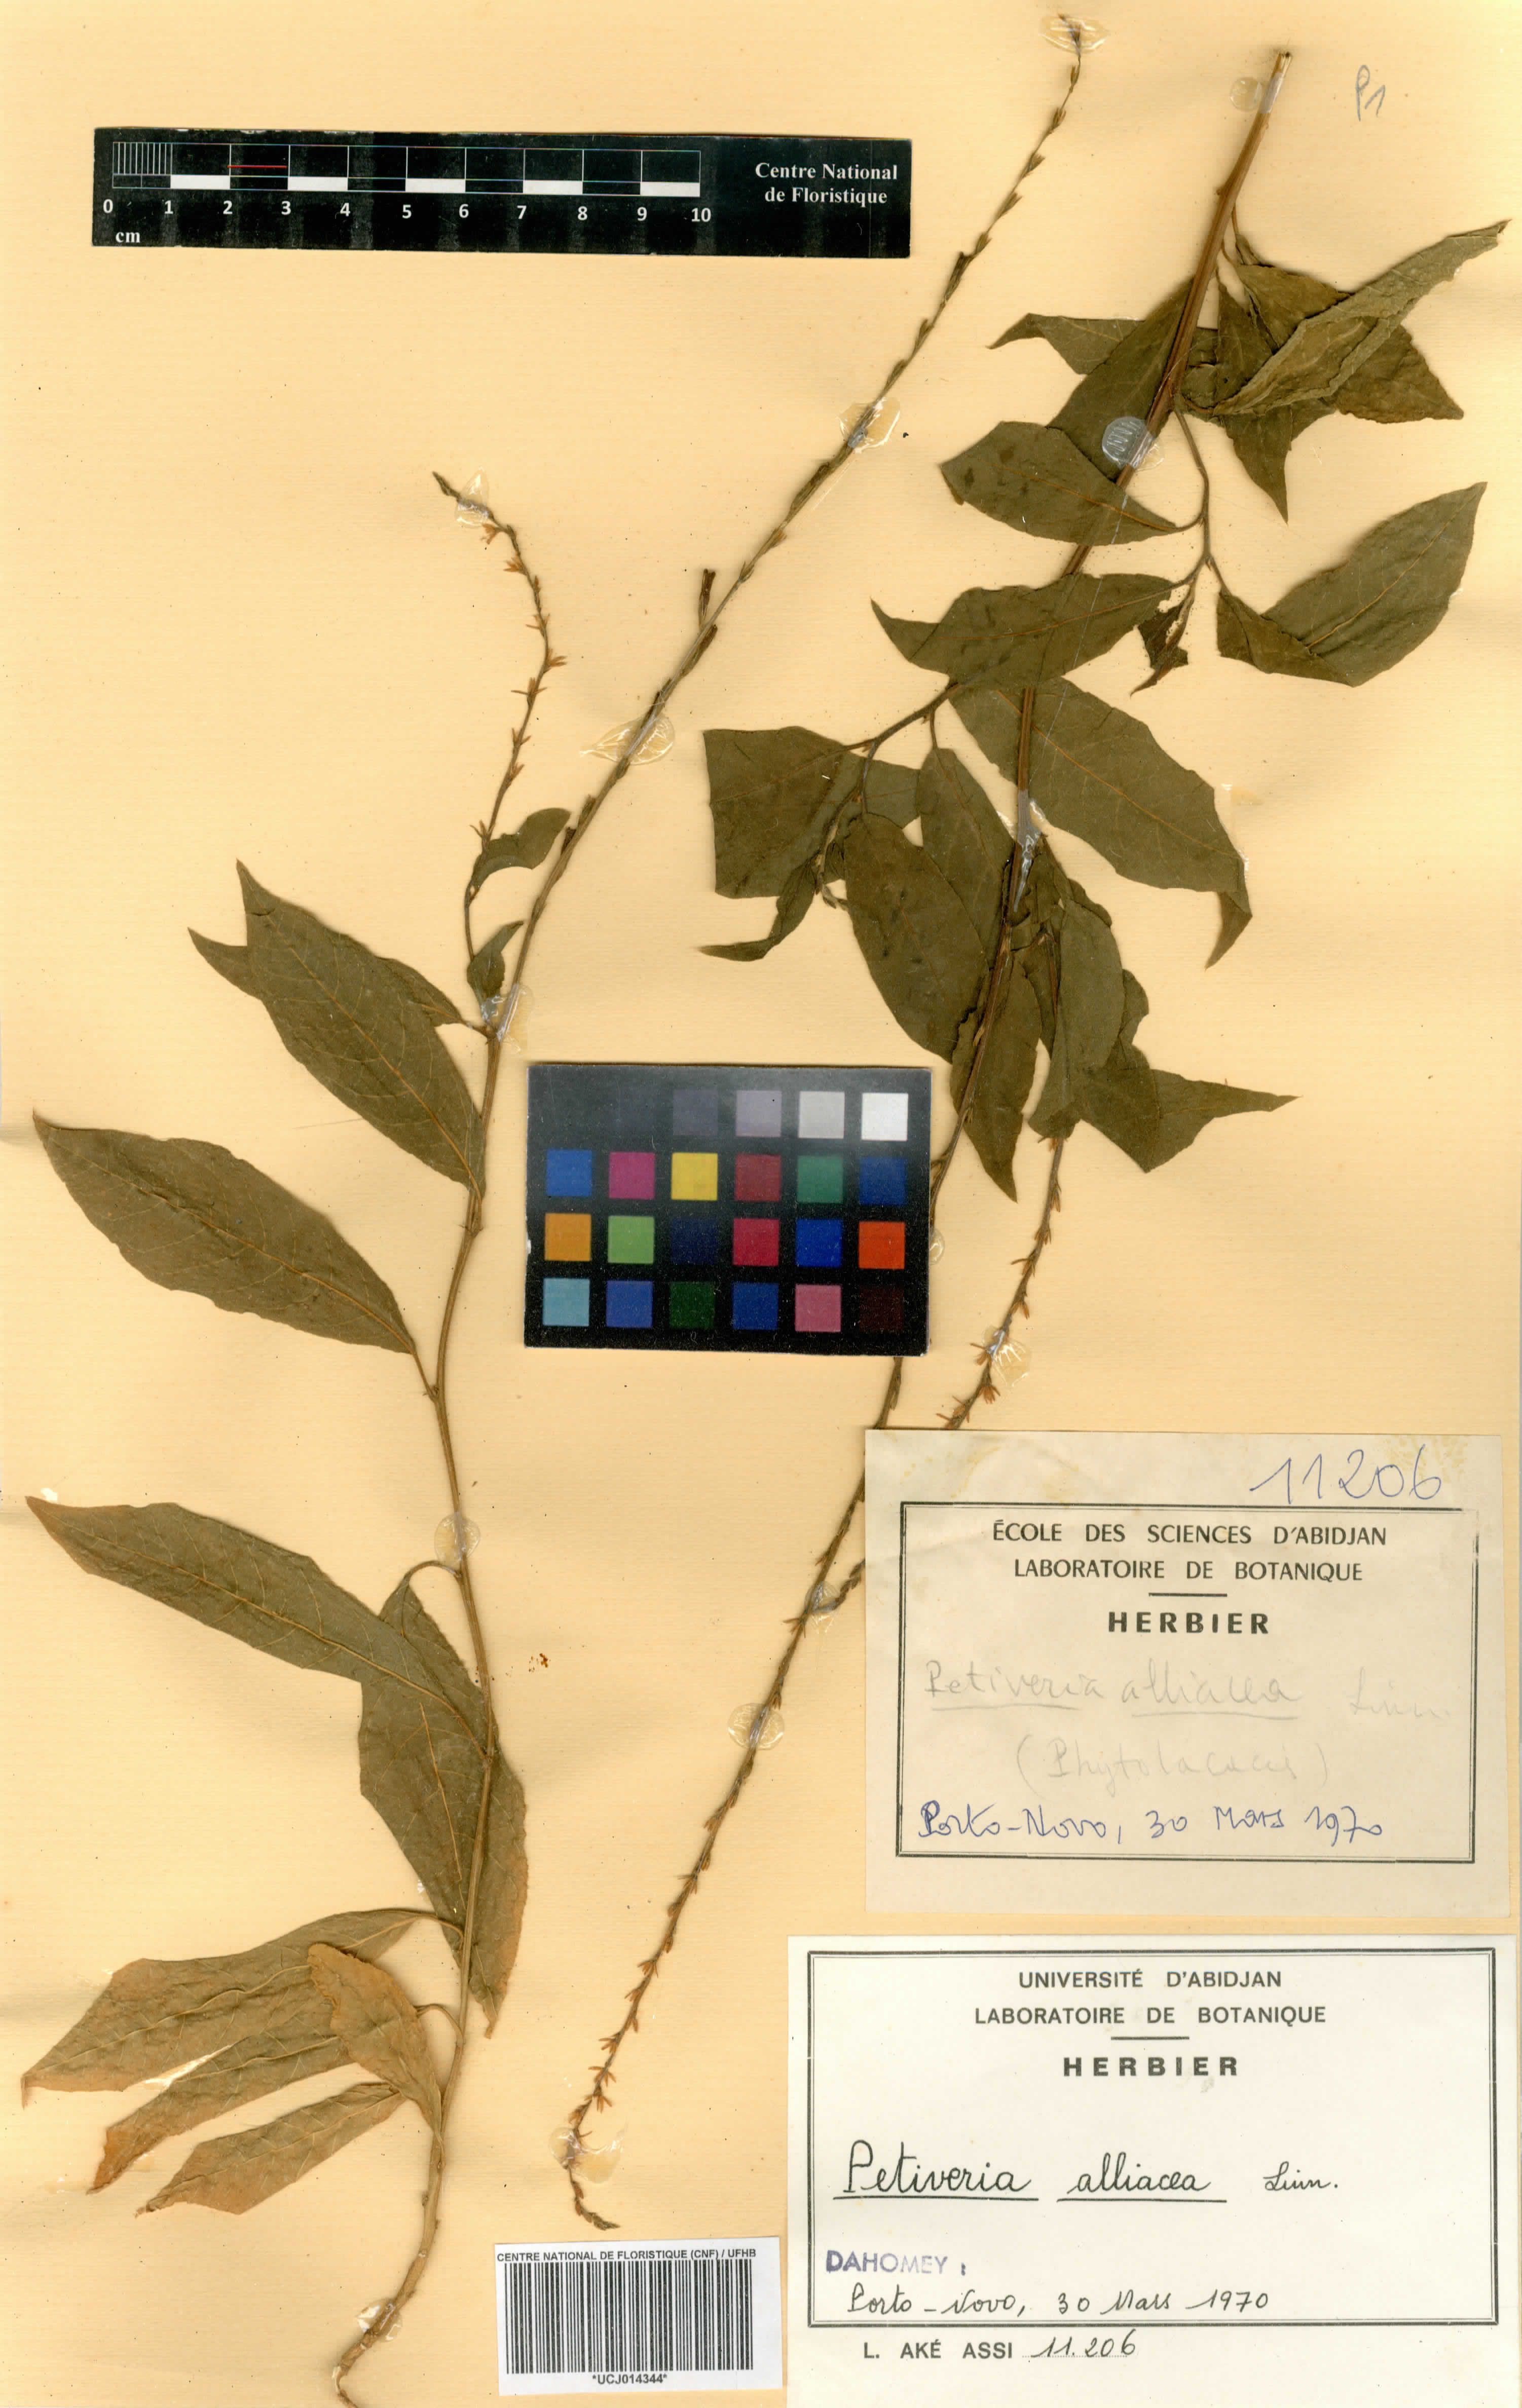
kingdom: Plantae
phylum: Tracheophyta
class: Magnoliopsida
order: Caryophyllales
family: Phytolaccaceae
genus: Petiveria
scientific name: Petiveria alliacea
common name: Garlicweed
